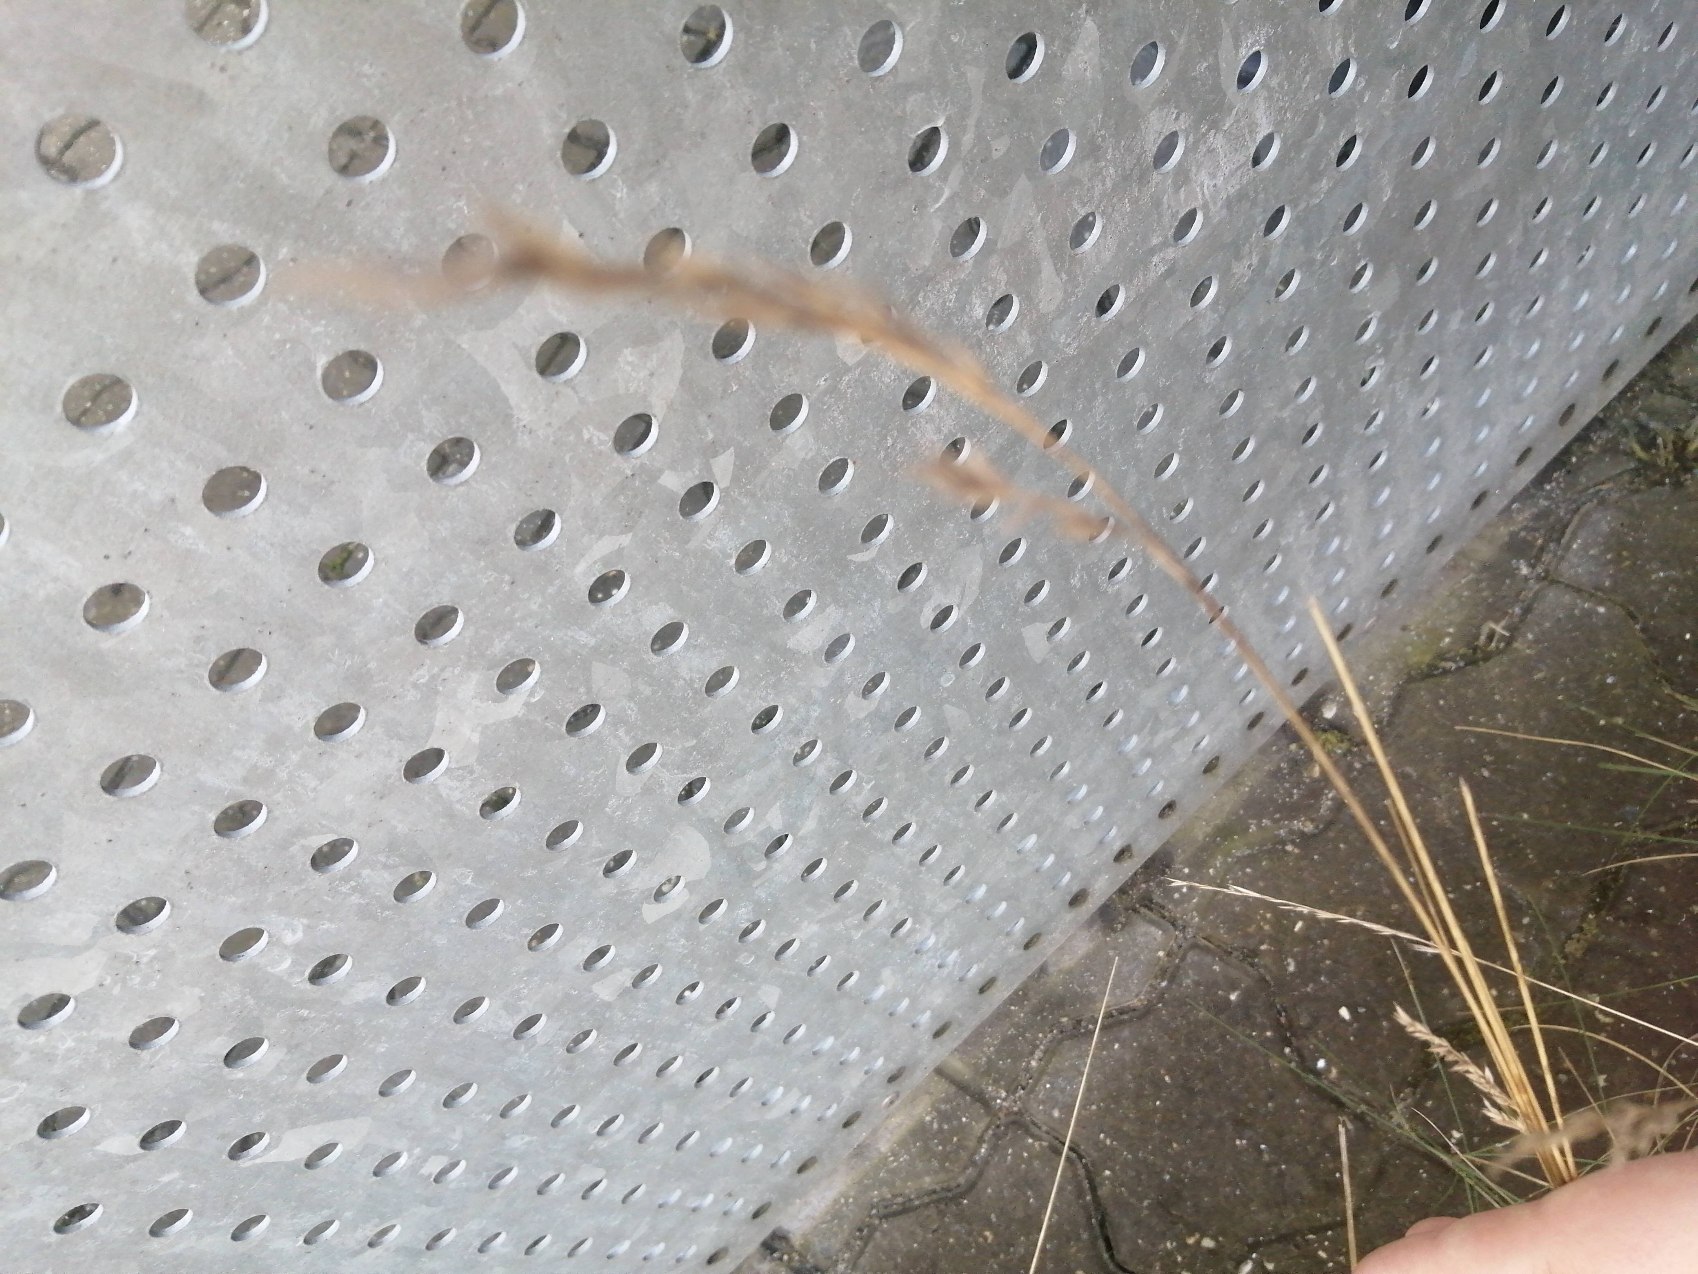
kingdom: Plantae
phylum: Tracheophyta
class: Liliopsida
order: Poales
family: Poaceae
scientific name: Poaceae
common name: Græsfamilien
